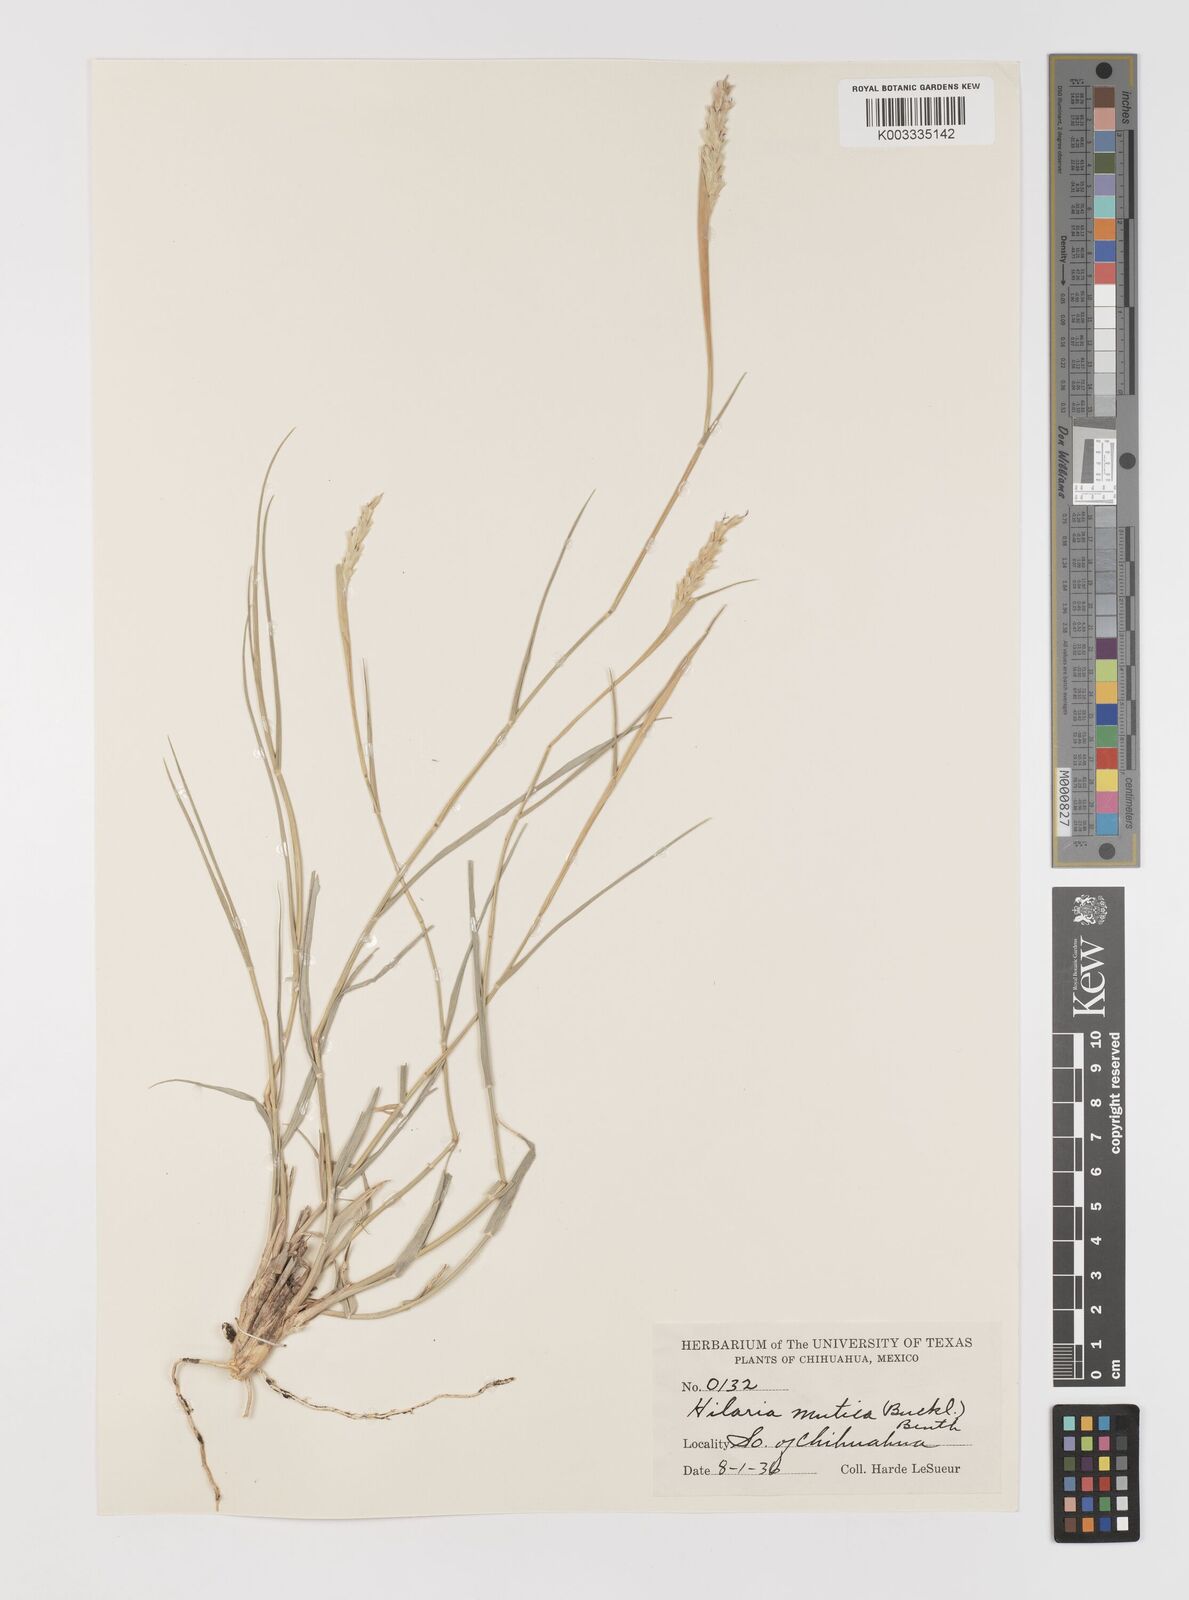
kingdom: Plantae
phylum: Tracheophyta
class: Liliopsida
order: Poales
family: Poaceae
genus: Hilaria
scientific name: Hilaria mutica
